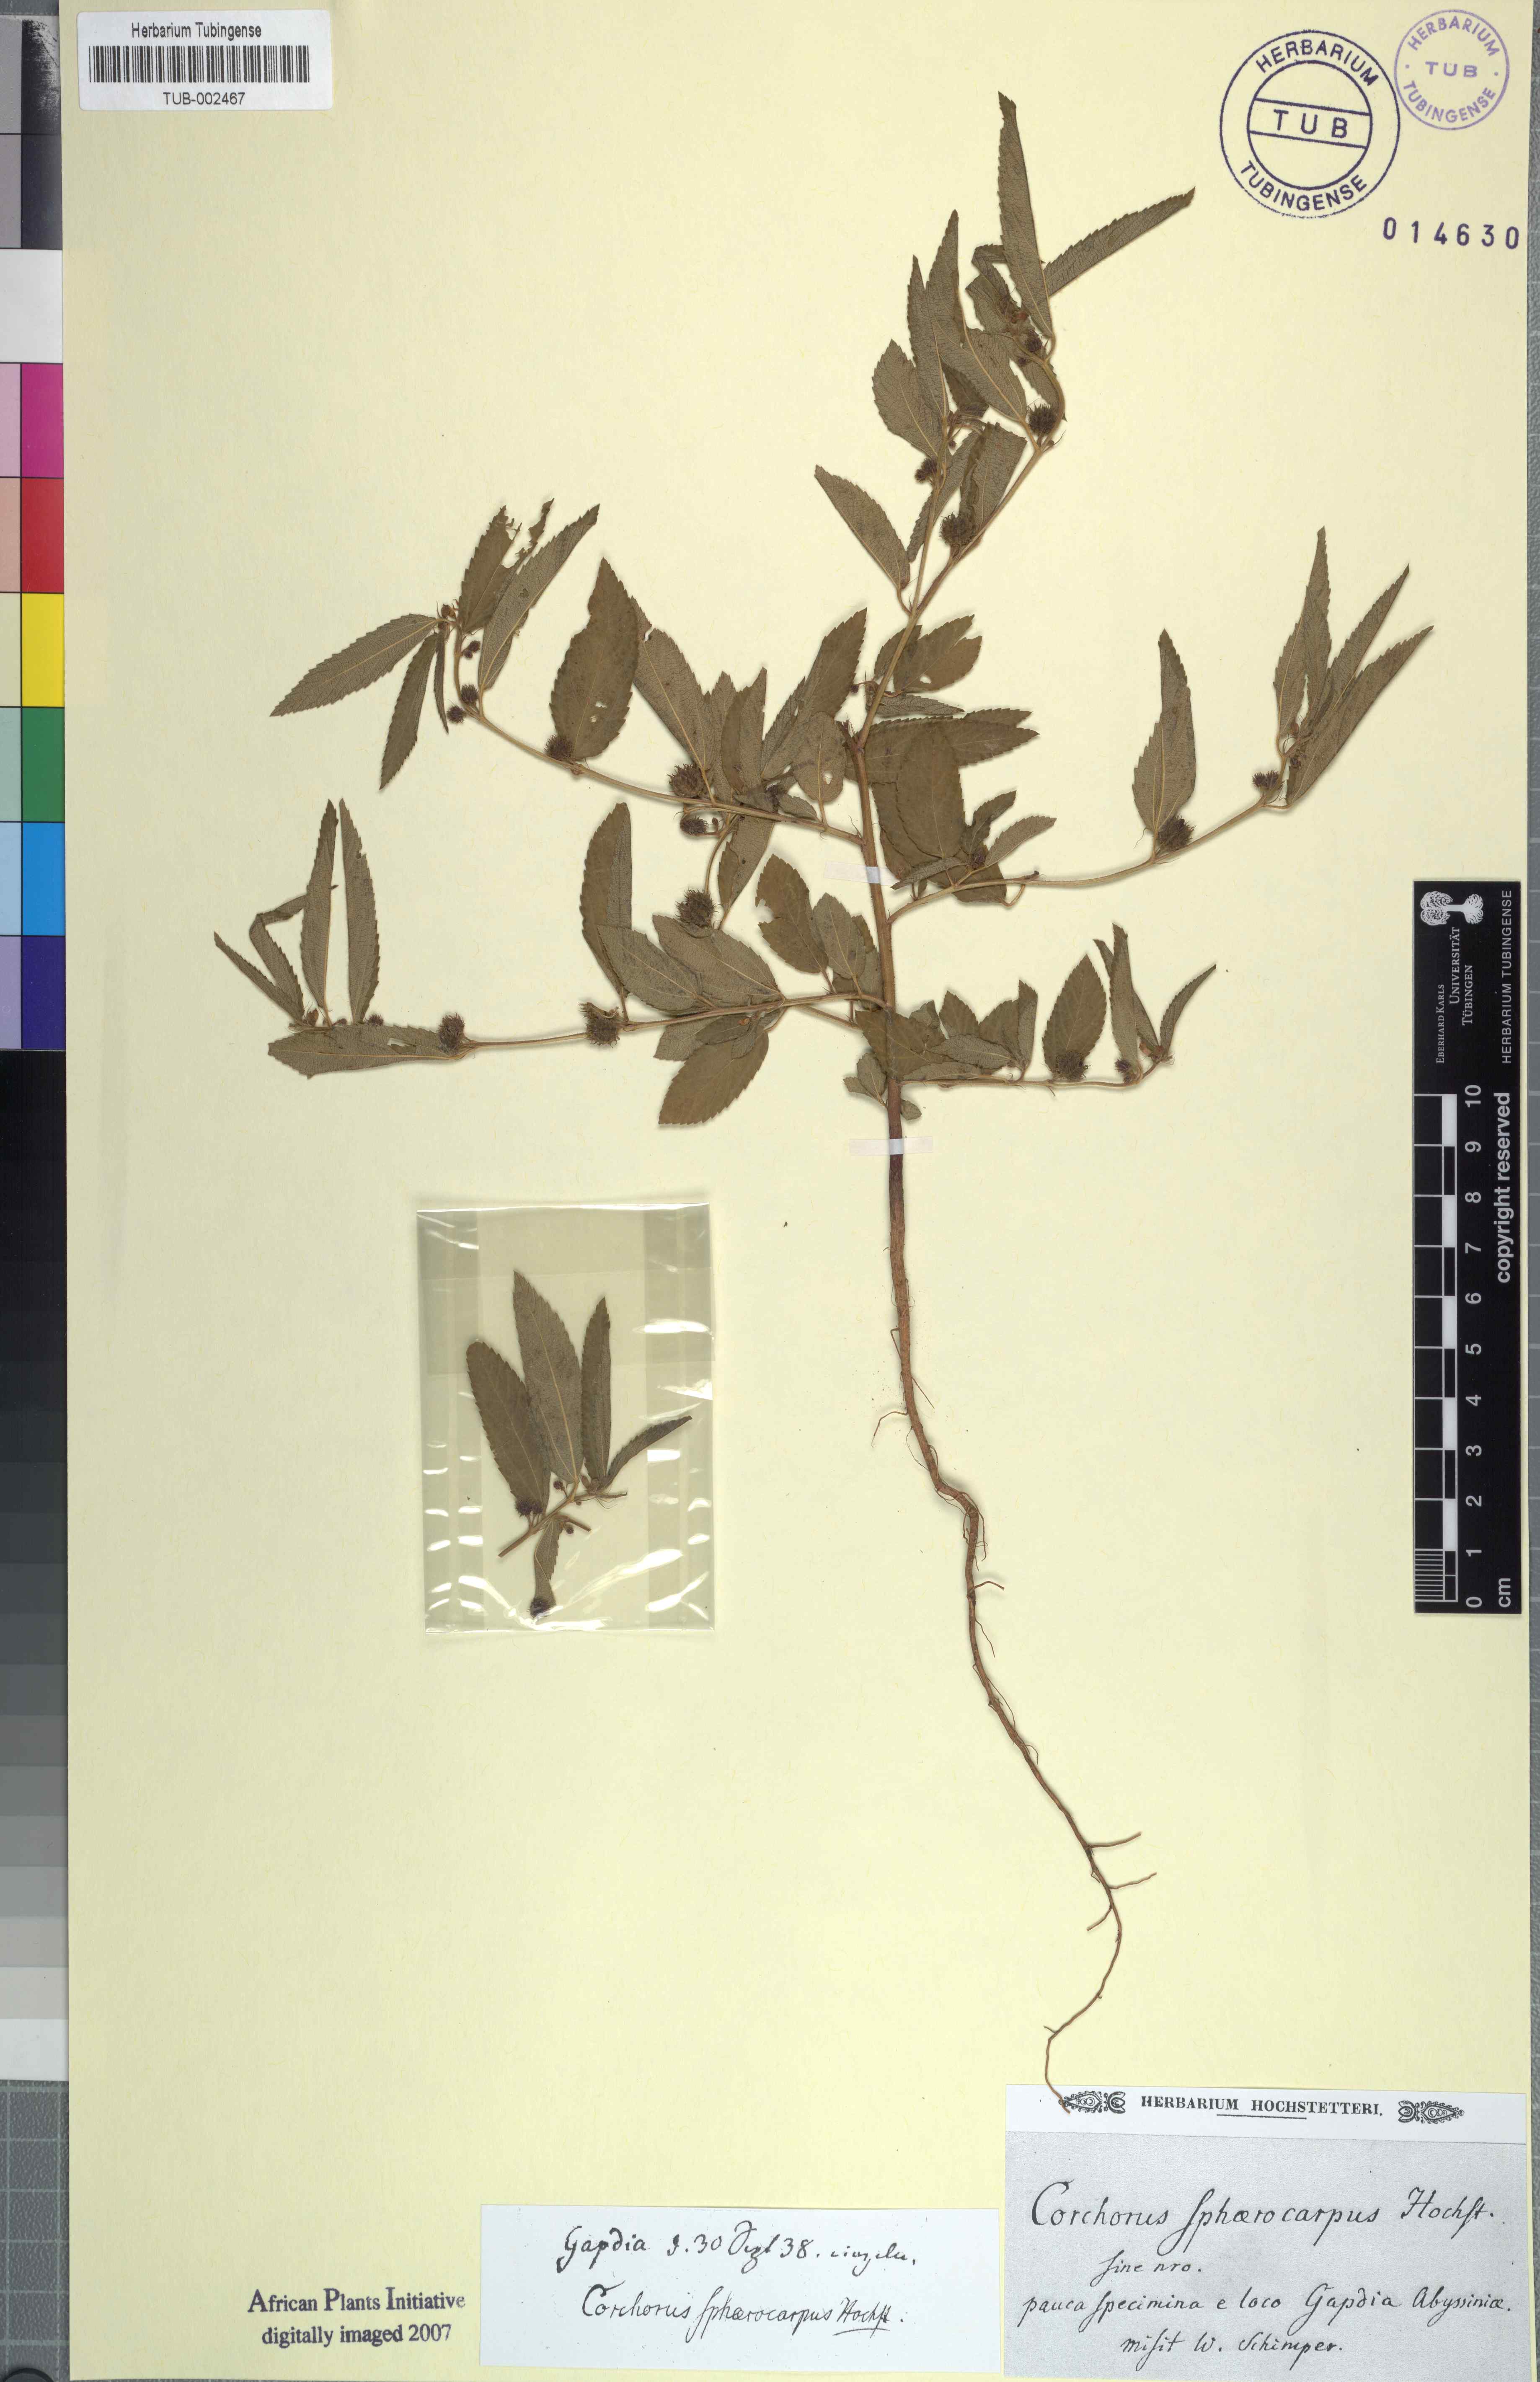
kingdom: Plantae
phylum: Tracheophyta
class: Magnoliopsida
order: Malvales
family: Malvaceae
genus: Corchorus
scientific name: Corchorus
